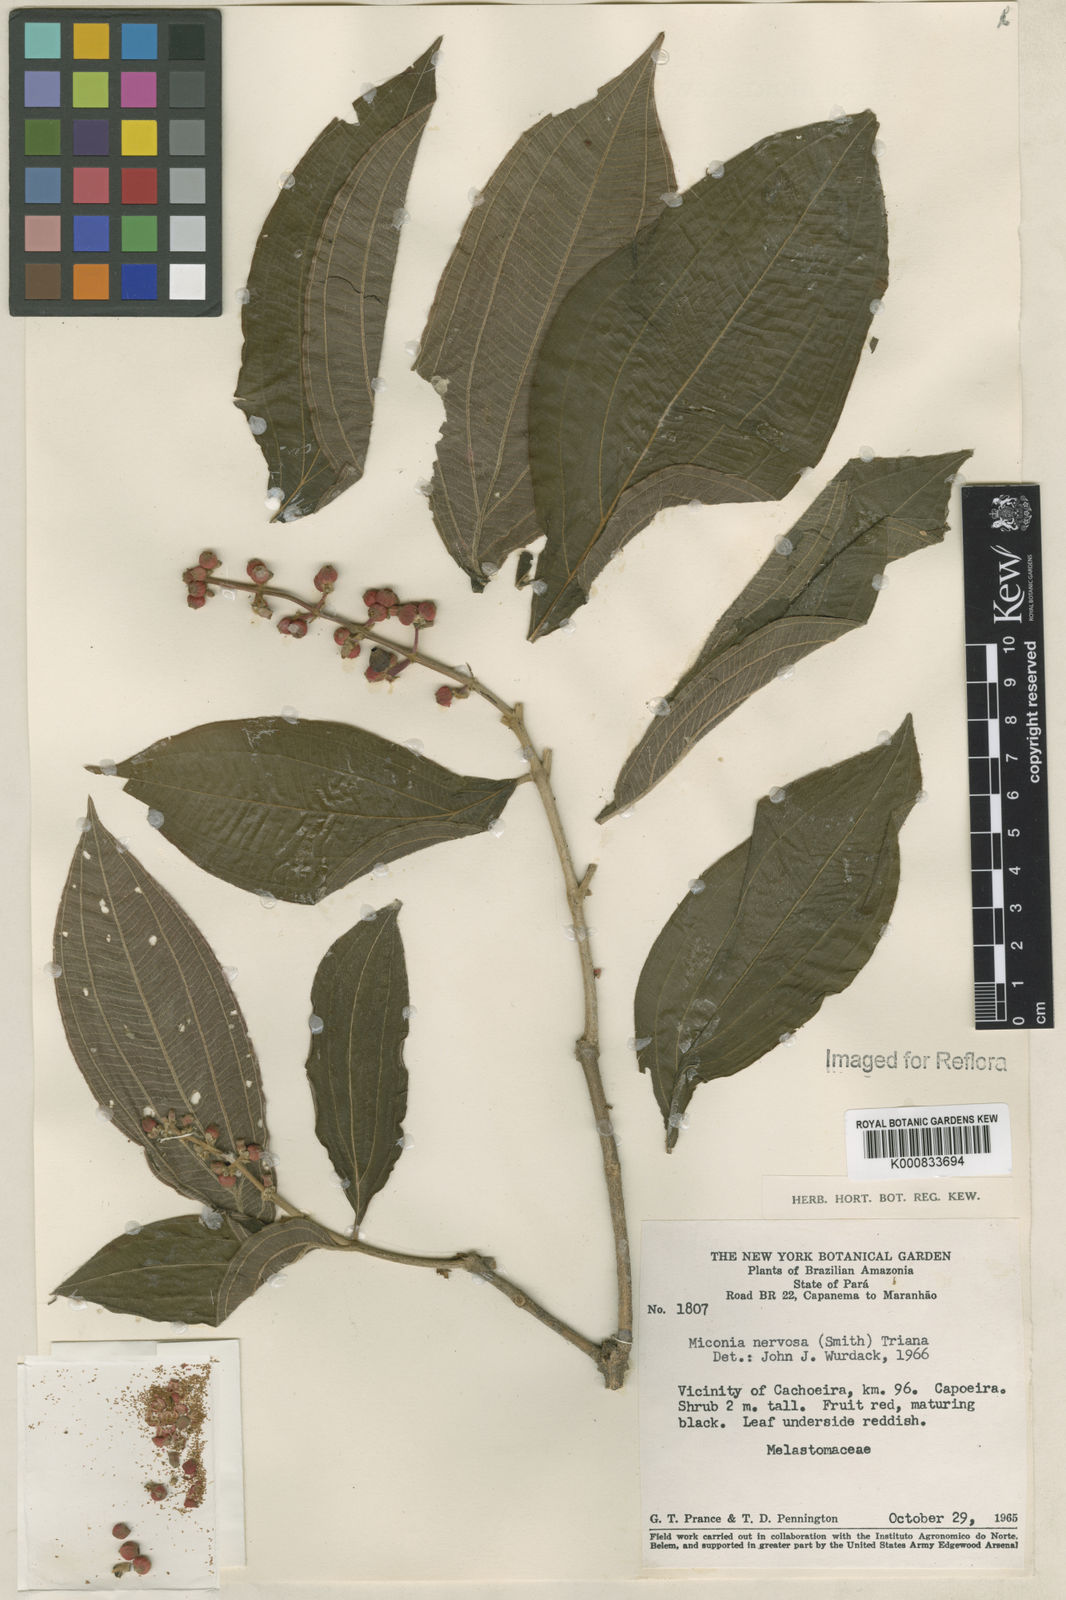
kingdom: Plantae
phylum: Tracheophyta
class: Magnoliopsida
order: Myrtales
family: Melastomataceae
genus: Miconia
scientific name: Miconia nervosa
